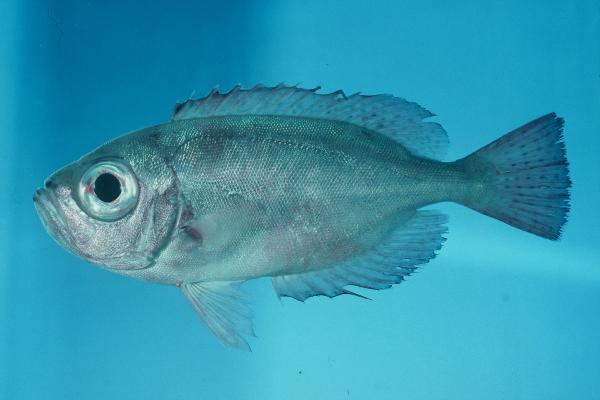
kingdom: Animalia
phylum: Chordata
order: Perciformes
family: Priacanthidae
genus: Heteropriacanthus
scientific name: Heteropriacanthus cruentatus
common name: Glasseye
